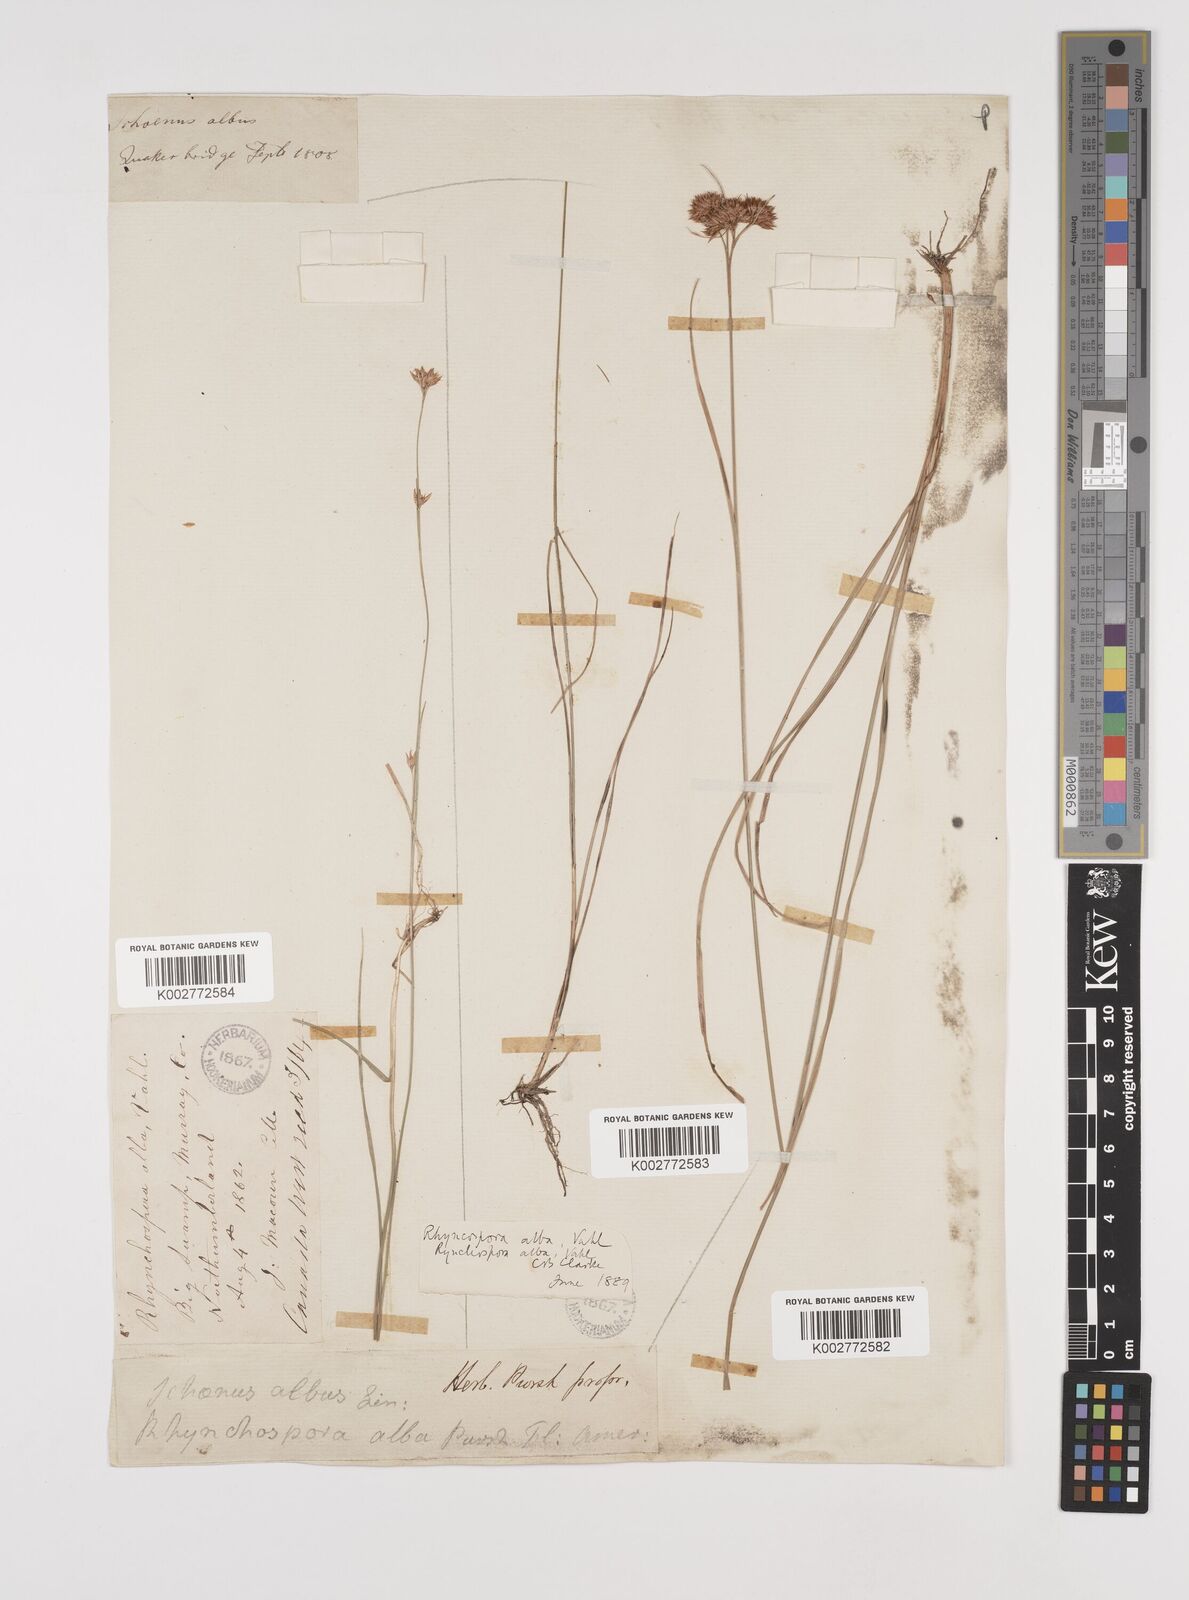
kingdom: Plantae
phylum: Tracheophyta
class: Liliopsida
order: Poales
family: Cyperaceae
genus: Rhynchospora
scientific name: Rhynchospora alba
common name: White beak-sedge
